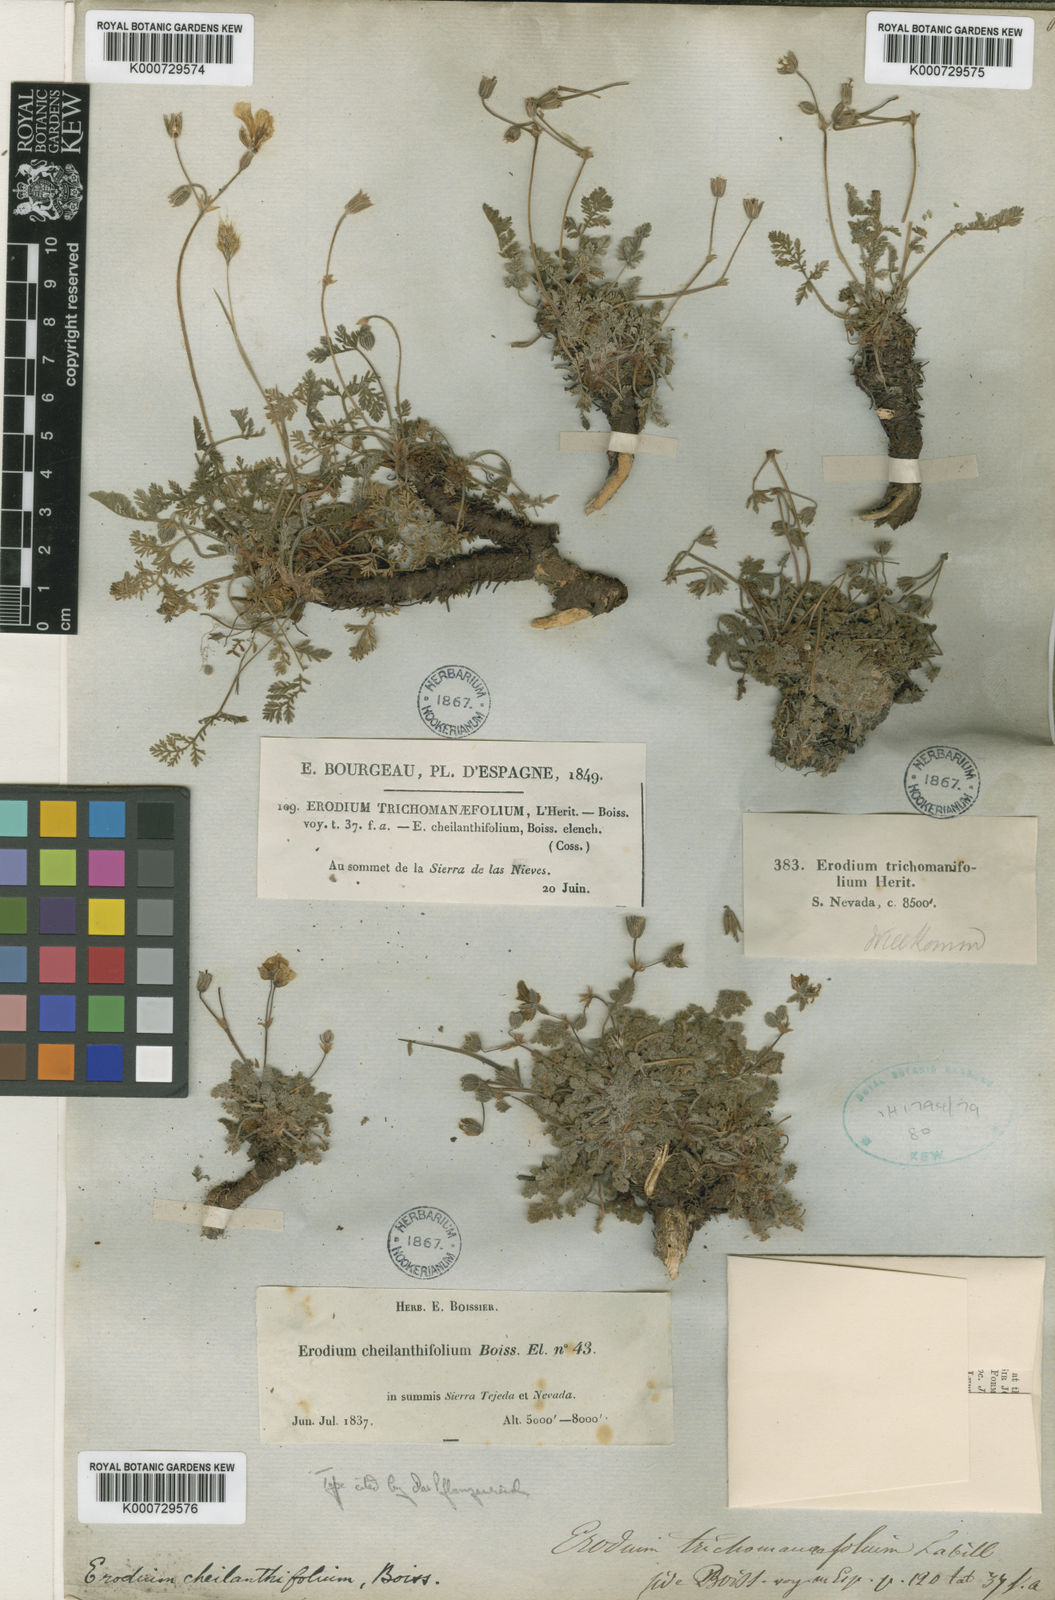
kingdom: Plantae
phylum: Tracheophyta
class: Magnoliopsida
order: Geraniales
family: Geraniaceae
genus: Erodium
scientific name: Erodium cheilanthifolium
